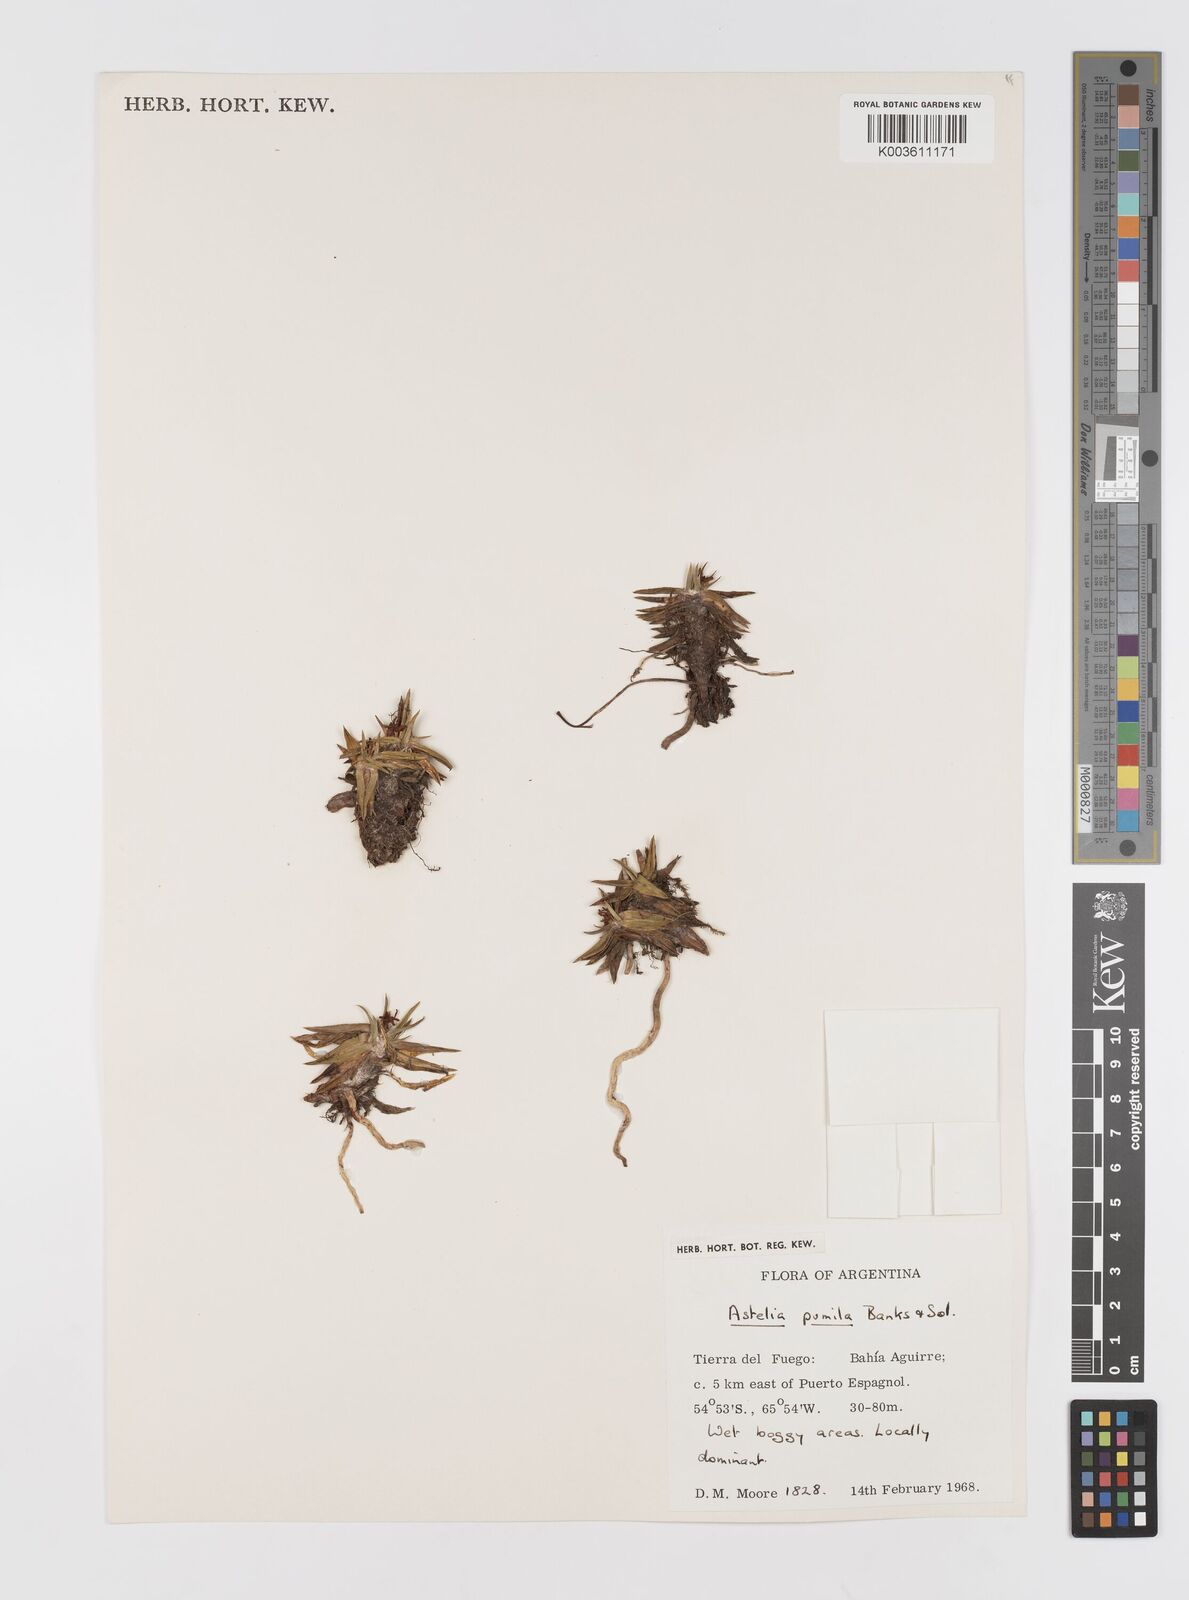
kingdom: Plantae
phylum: Tracheophyta
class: Liliopsida
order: Asparagales
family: Asteliaceae
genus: Astelia
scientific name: Astelia pumila
